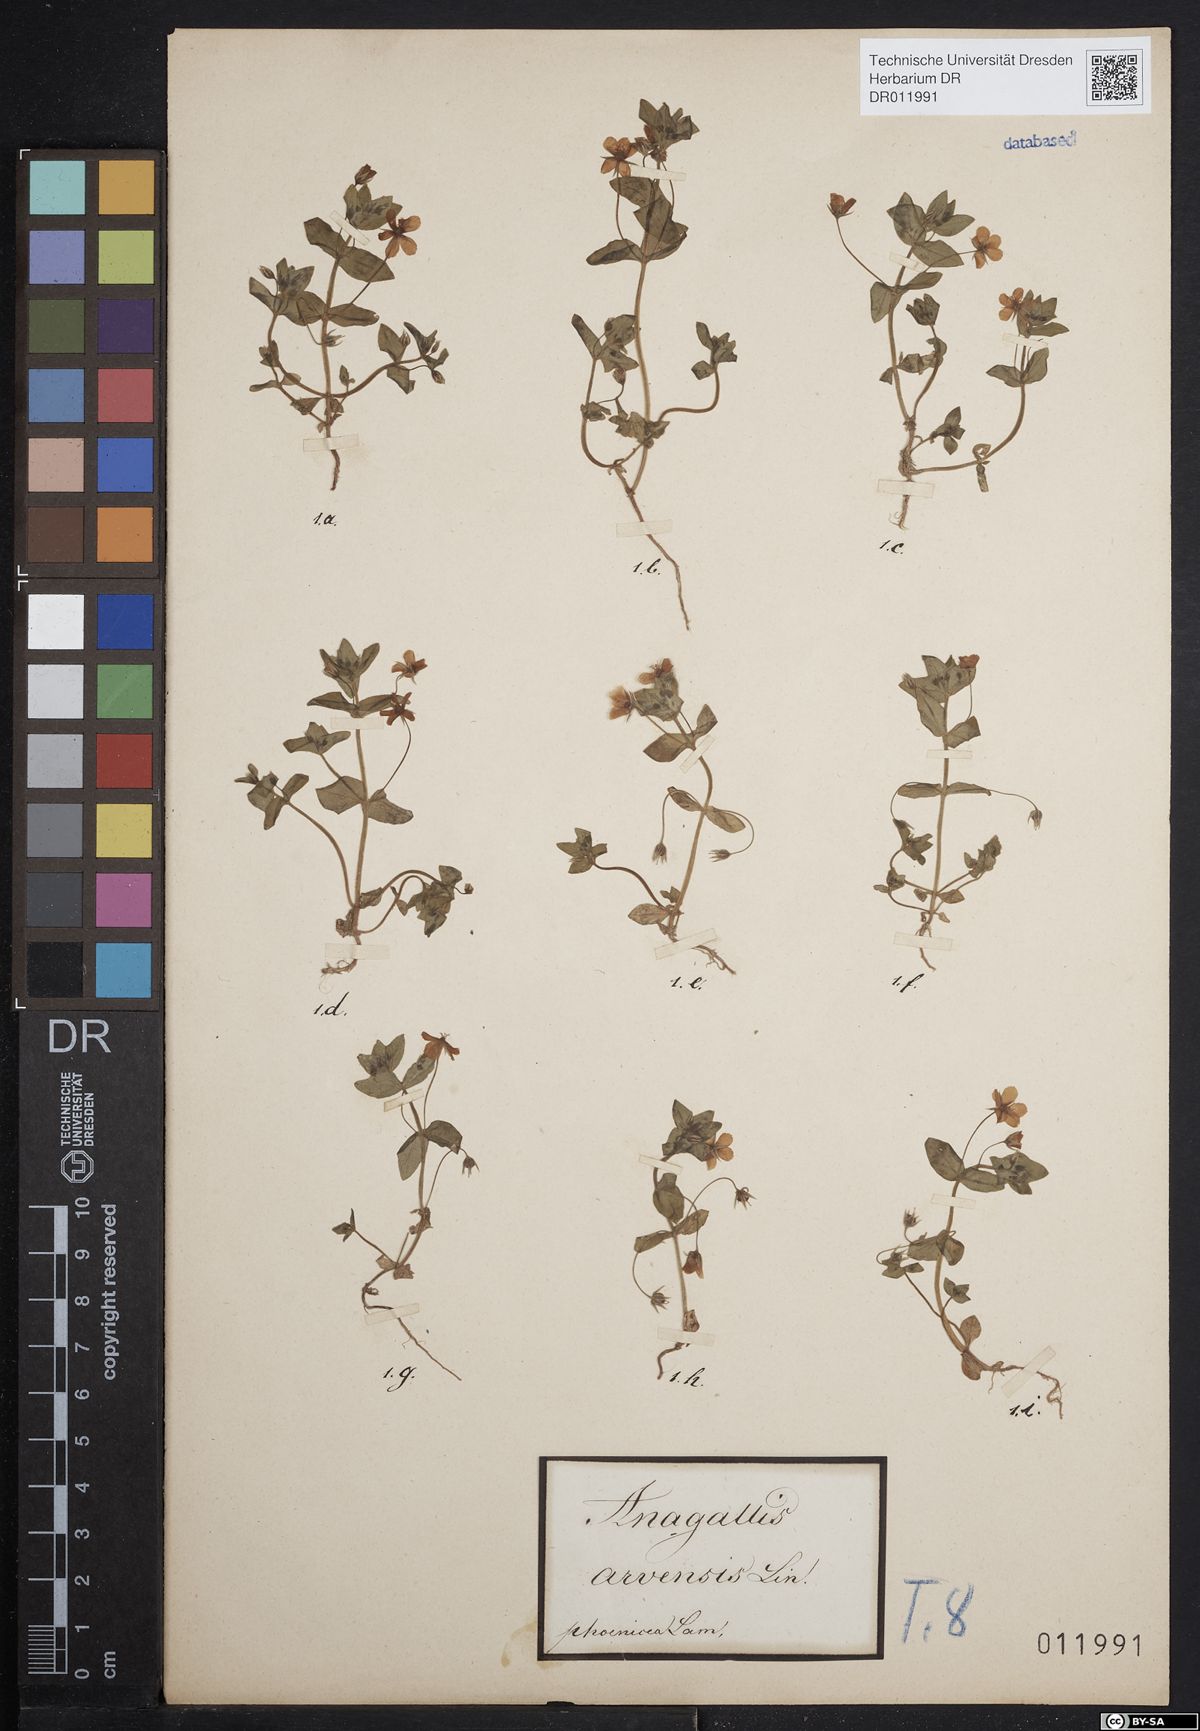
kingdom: Plantae
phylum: Tracheophyta
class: Magnoliopsida
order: Ericales
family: Primulaceae
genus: Lysimachia
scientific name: Lysimachia arvensis
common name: Scarlet pimpernel
